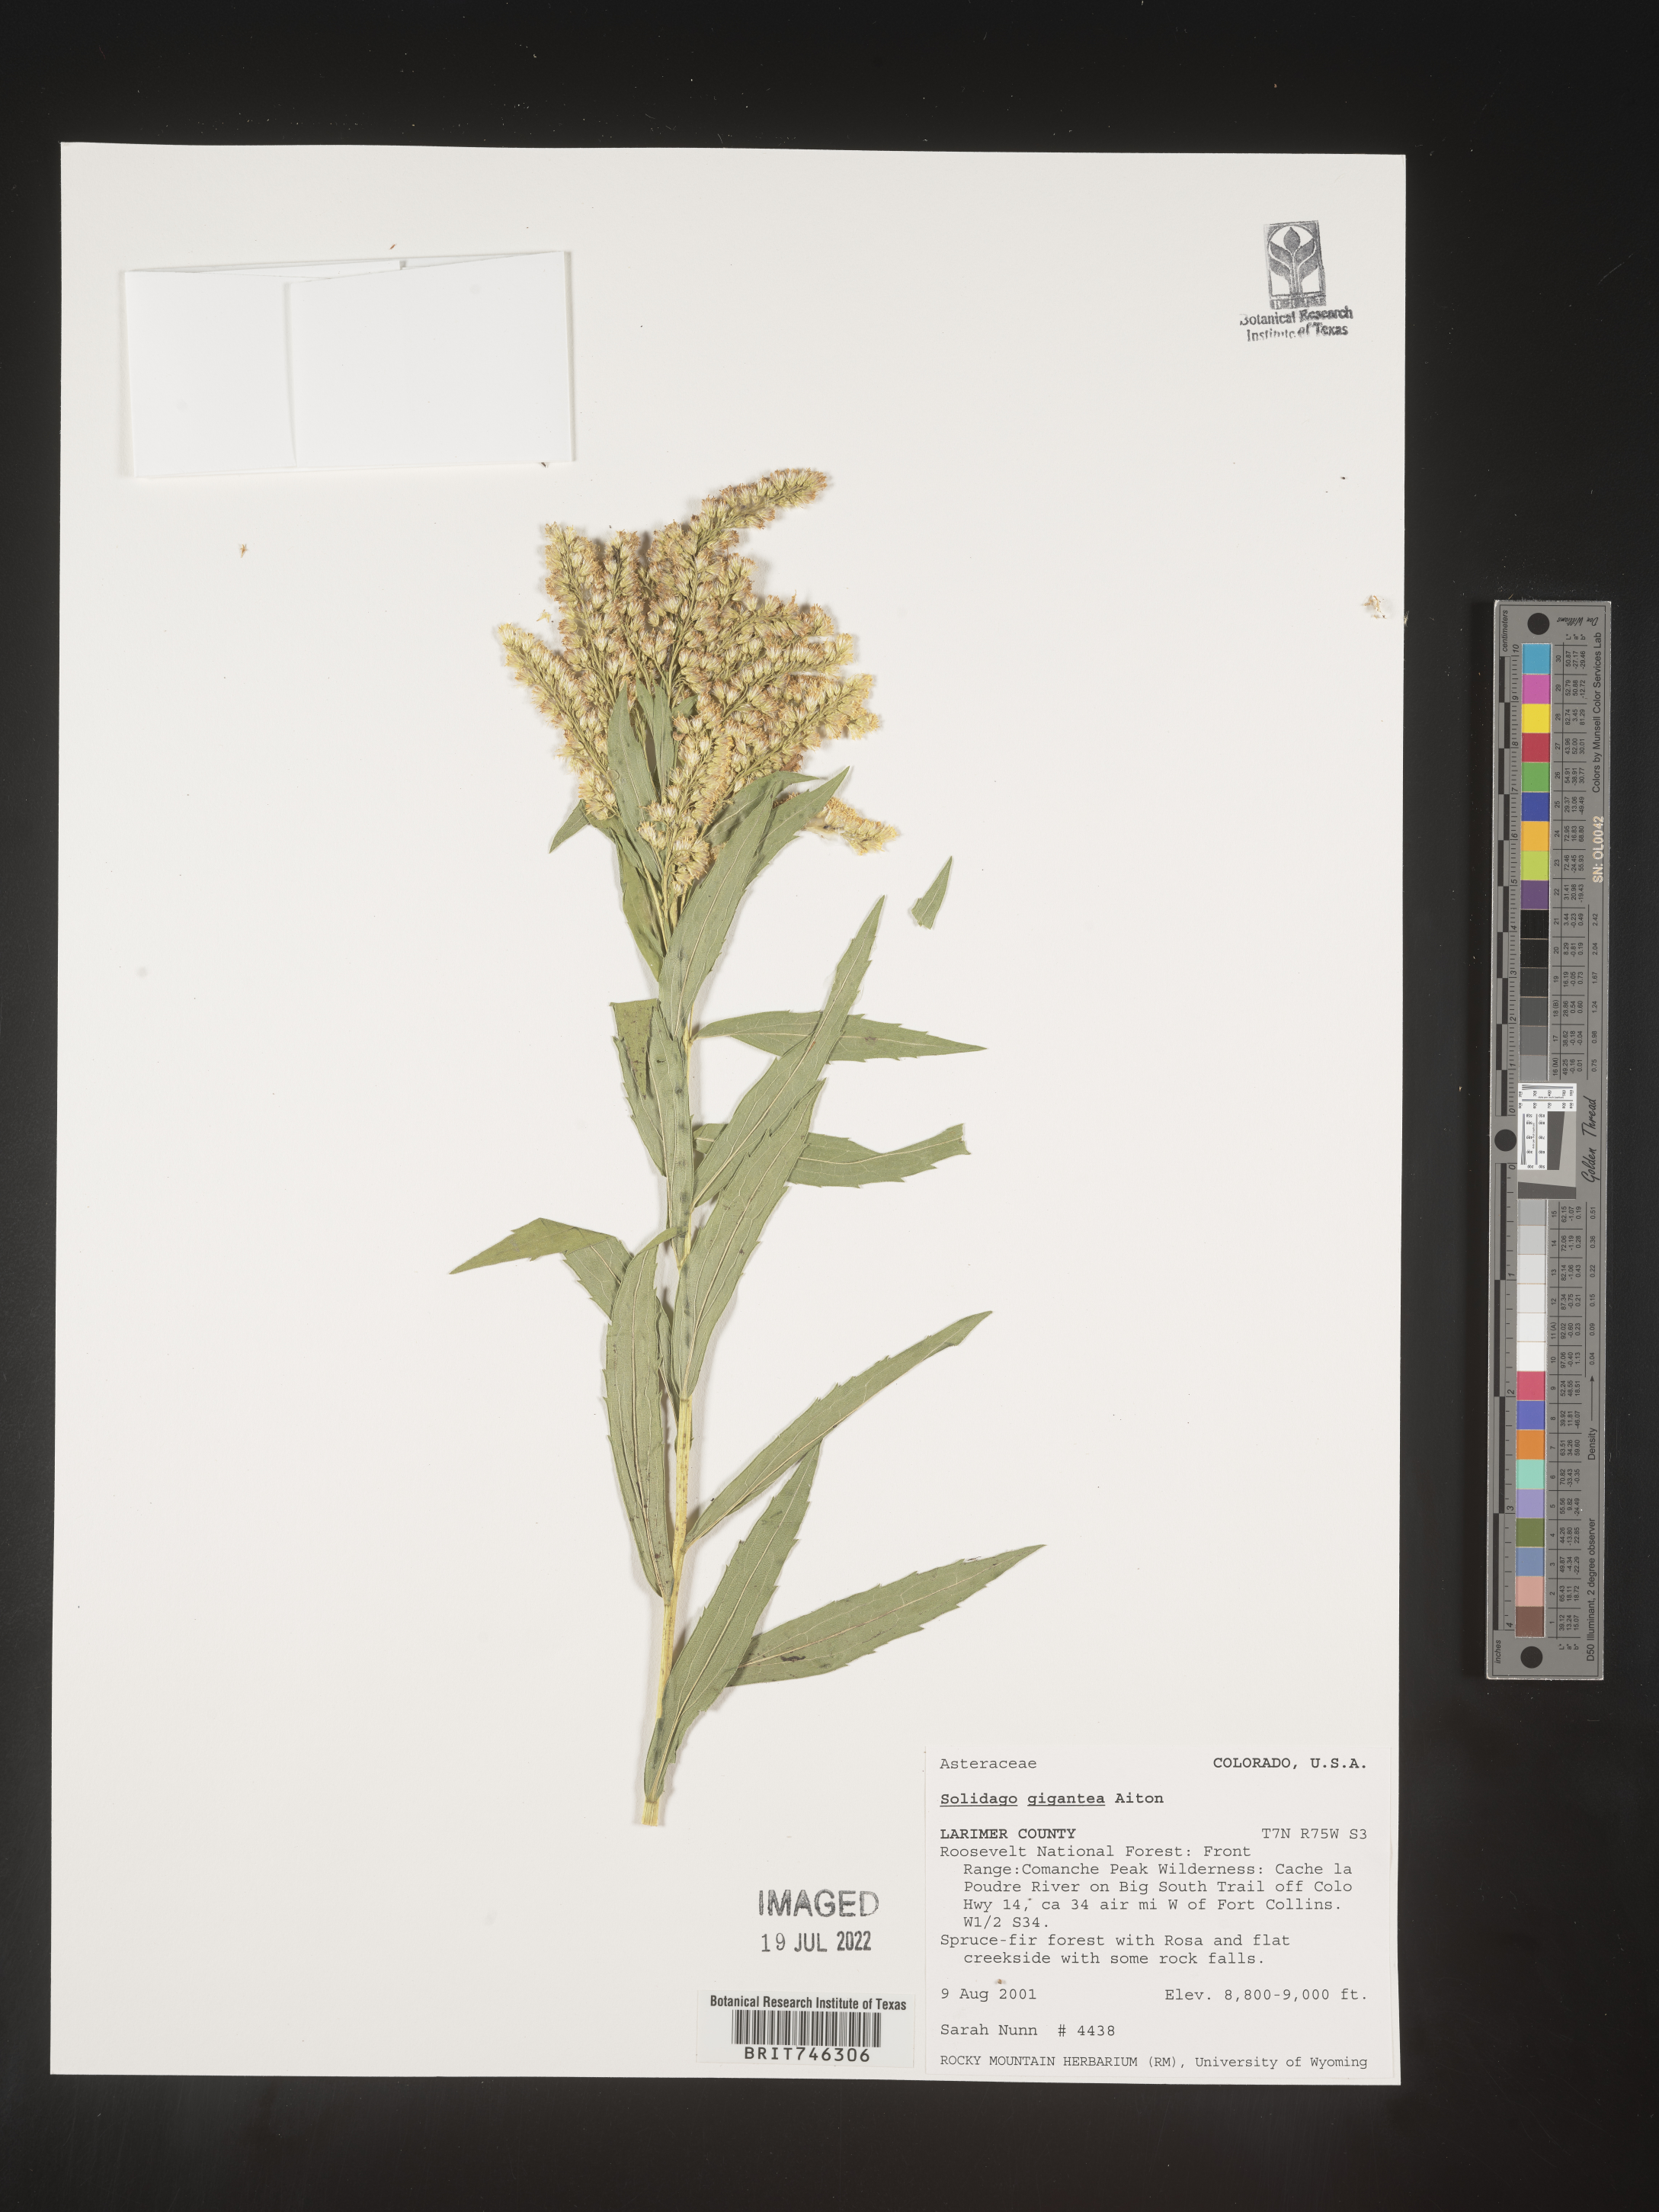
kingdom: Plantae
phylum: Tracheophyta
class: Magnoliopsida
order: Asterales
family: Asteraceae
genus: Solidago
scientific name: Solidago gigantea
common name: Giant goldenrod
